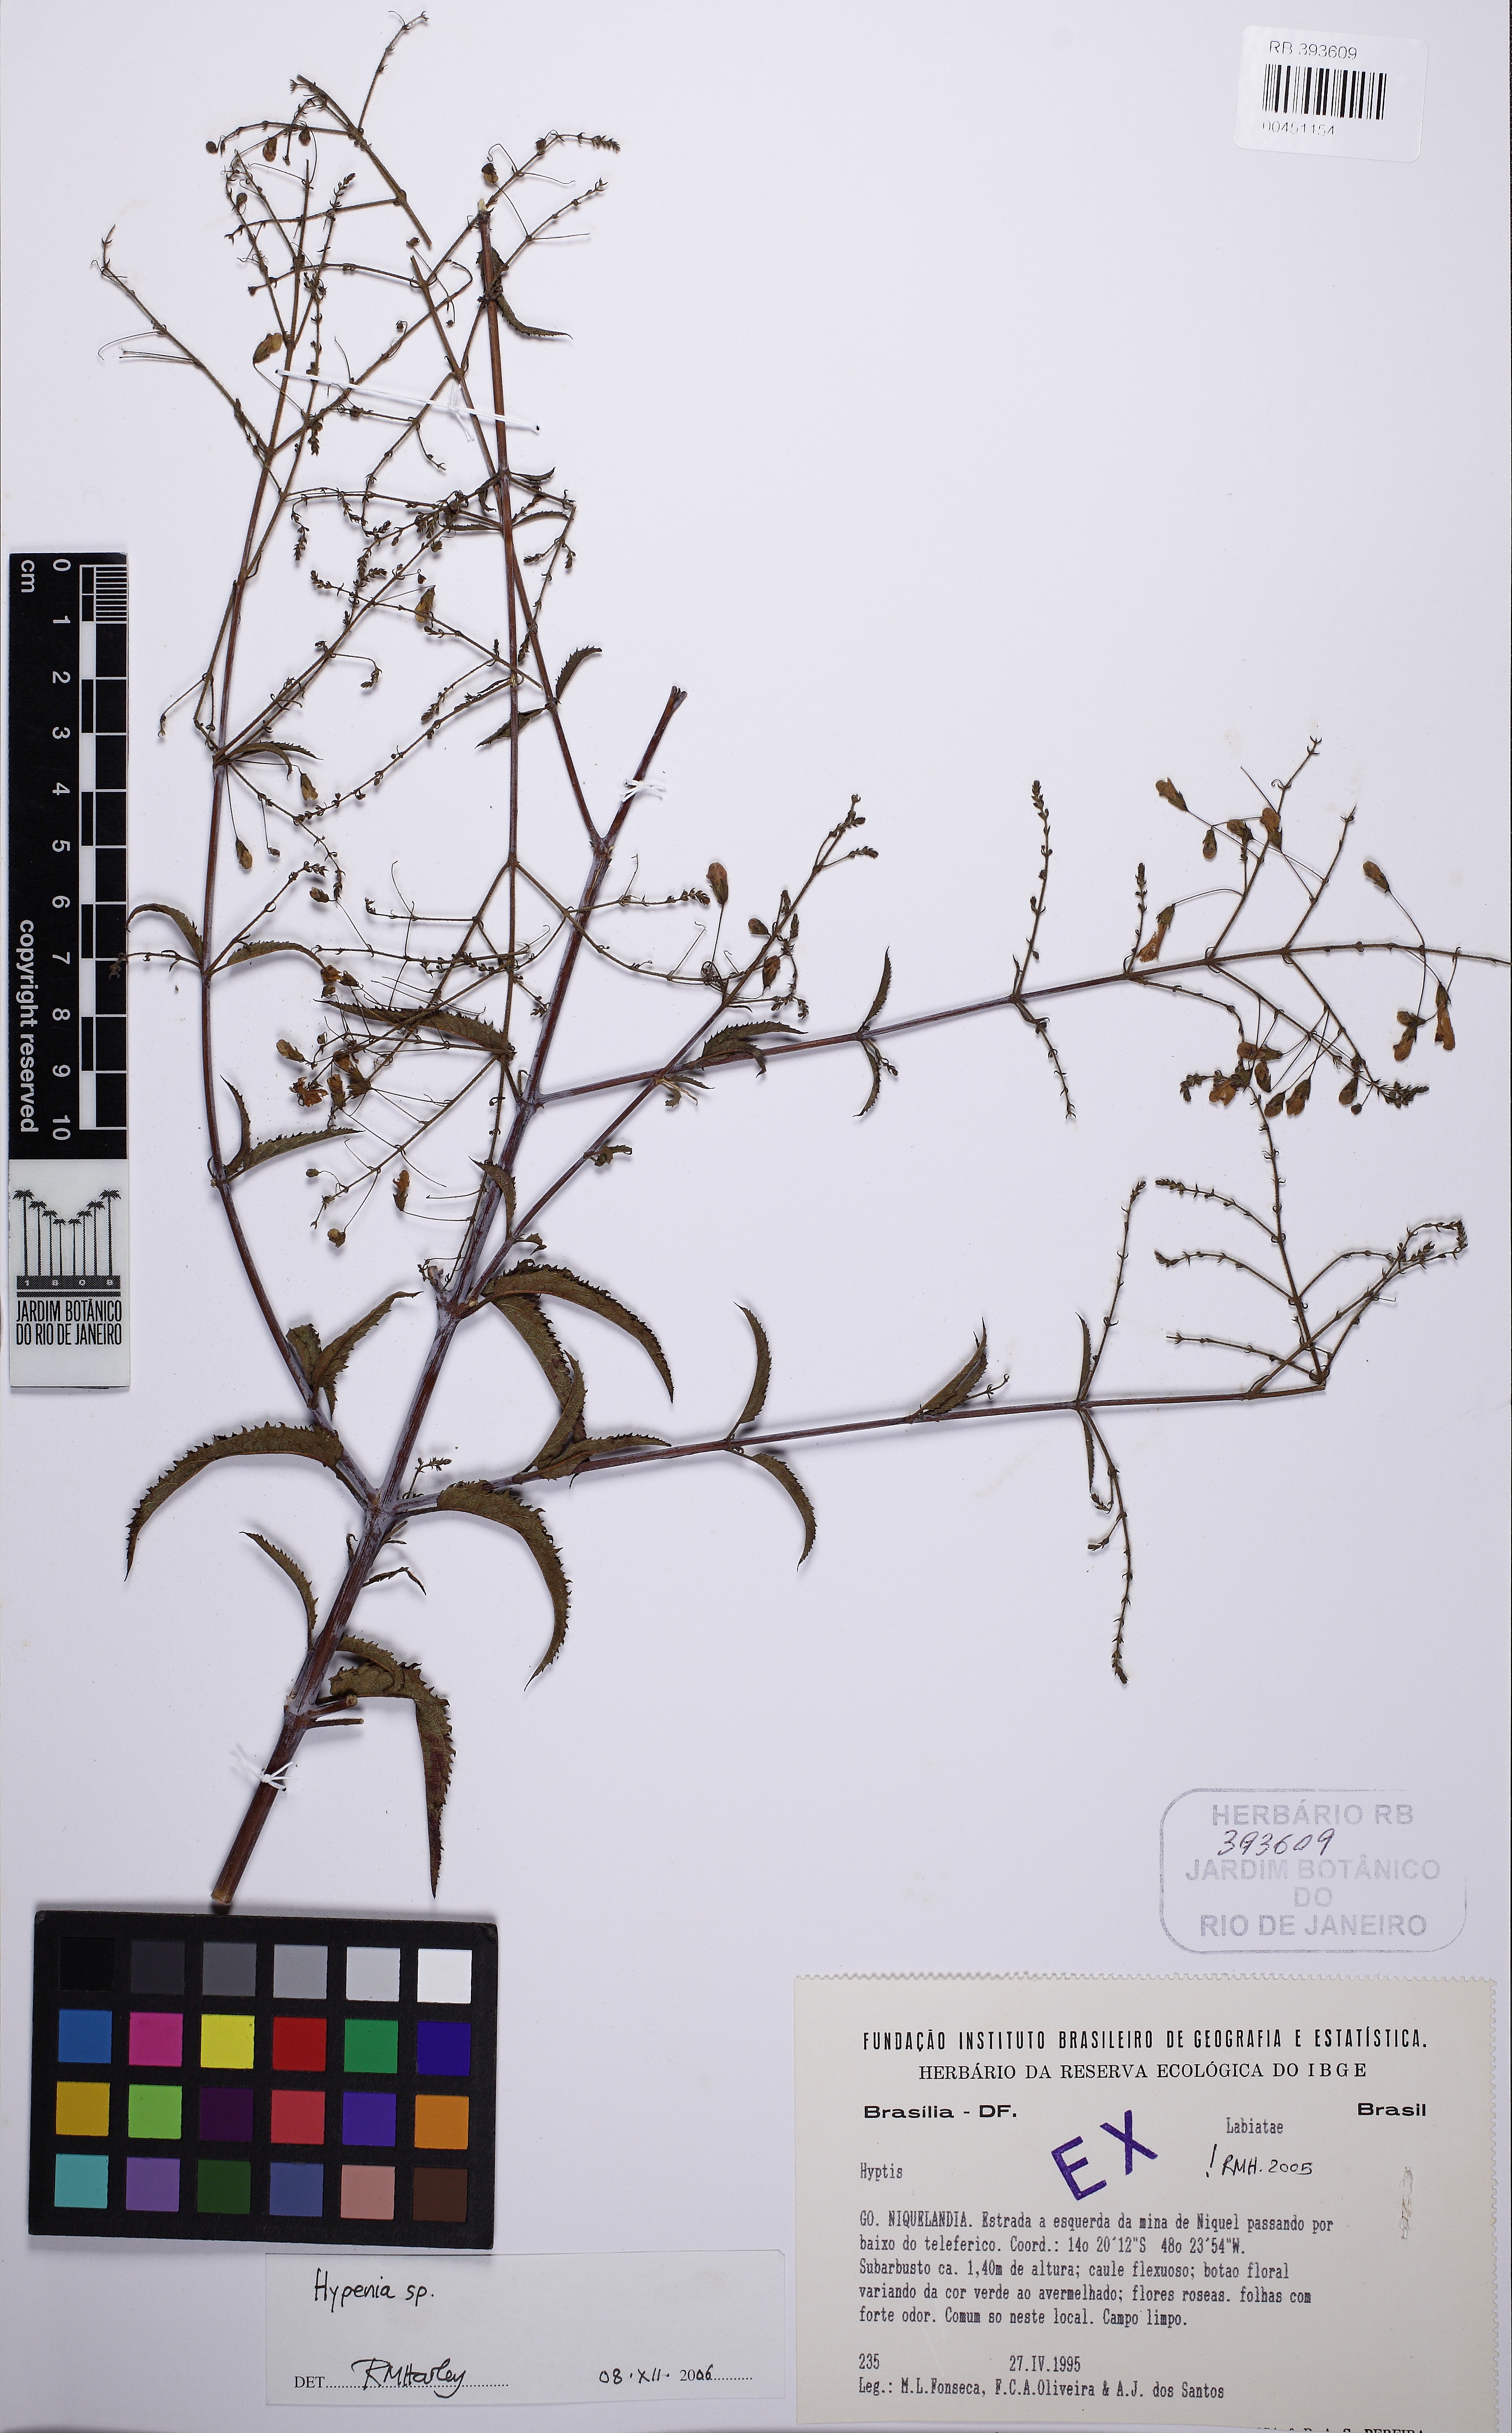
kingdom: Plantae
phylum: Tracheophyta
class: Magnoliopsida
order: Lamiales
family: Lamiaceae
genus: Hypenia
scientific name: Hypenia
